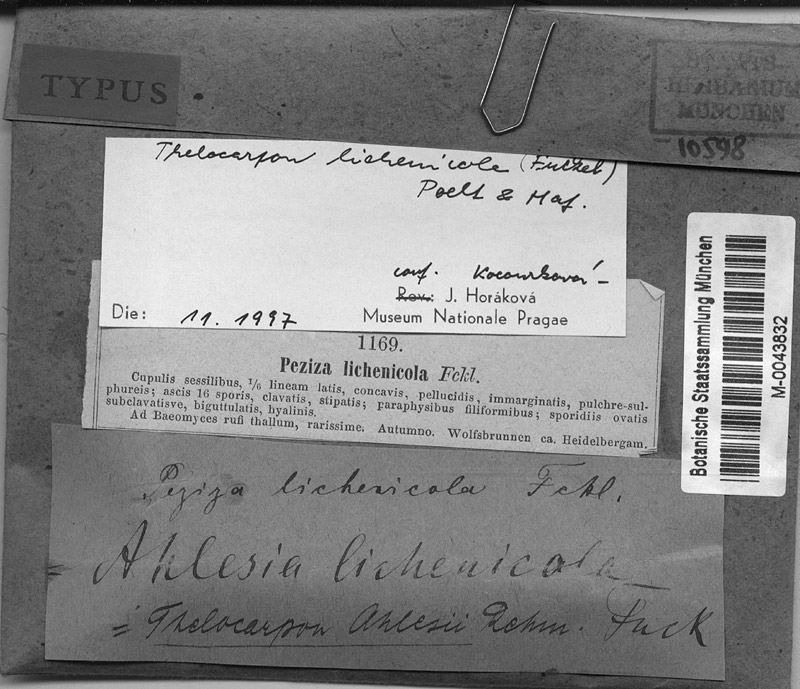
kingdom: Fungi
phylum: Ascomycota
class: Lecanoromycetes
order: Baeomycetales
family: Baeomycetaceae
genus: Baeomyces
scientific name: Baeomyces rufus
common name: Brown beret lichen
